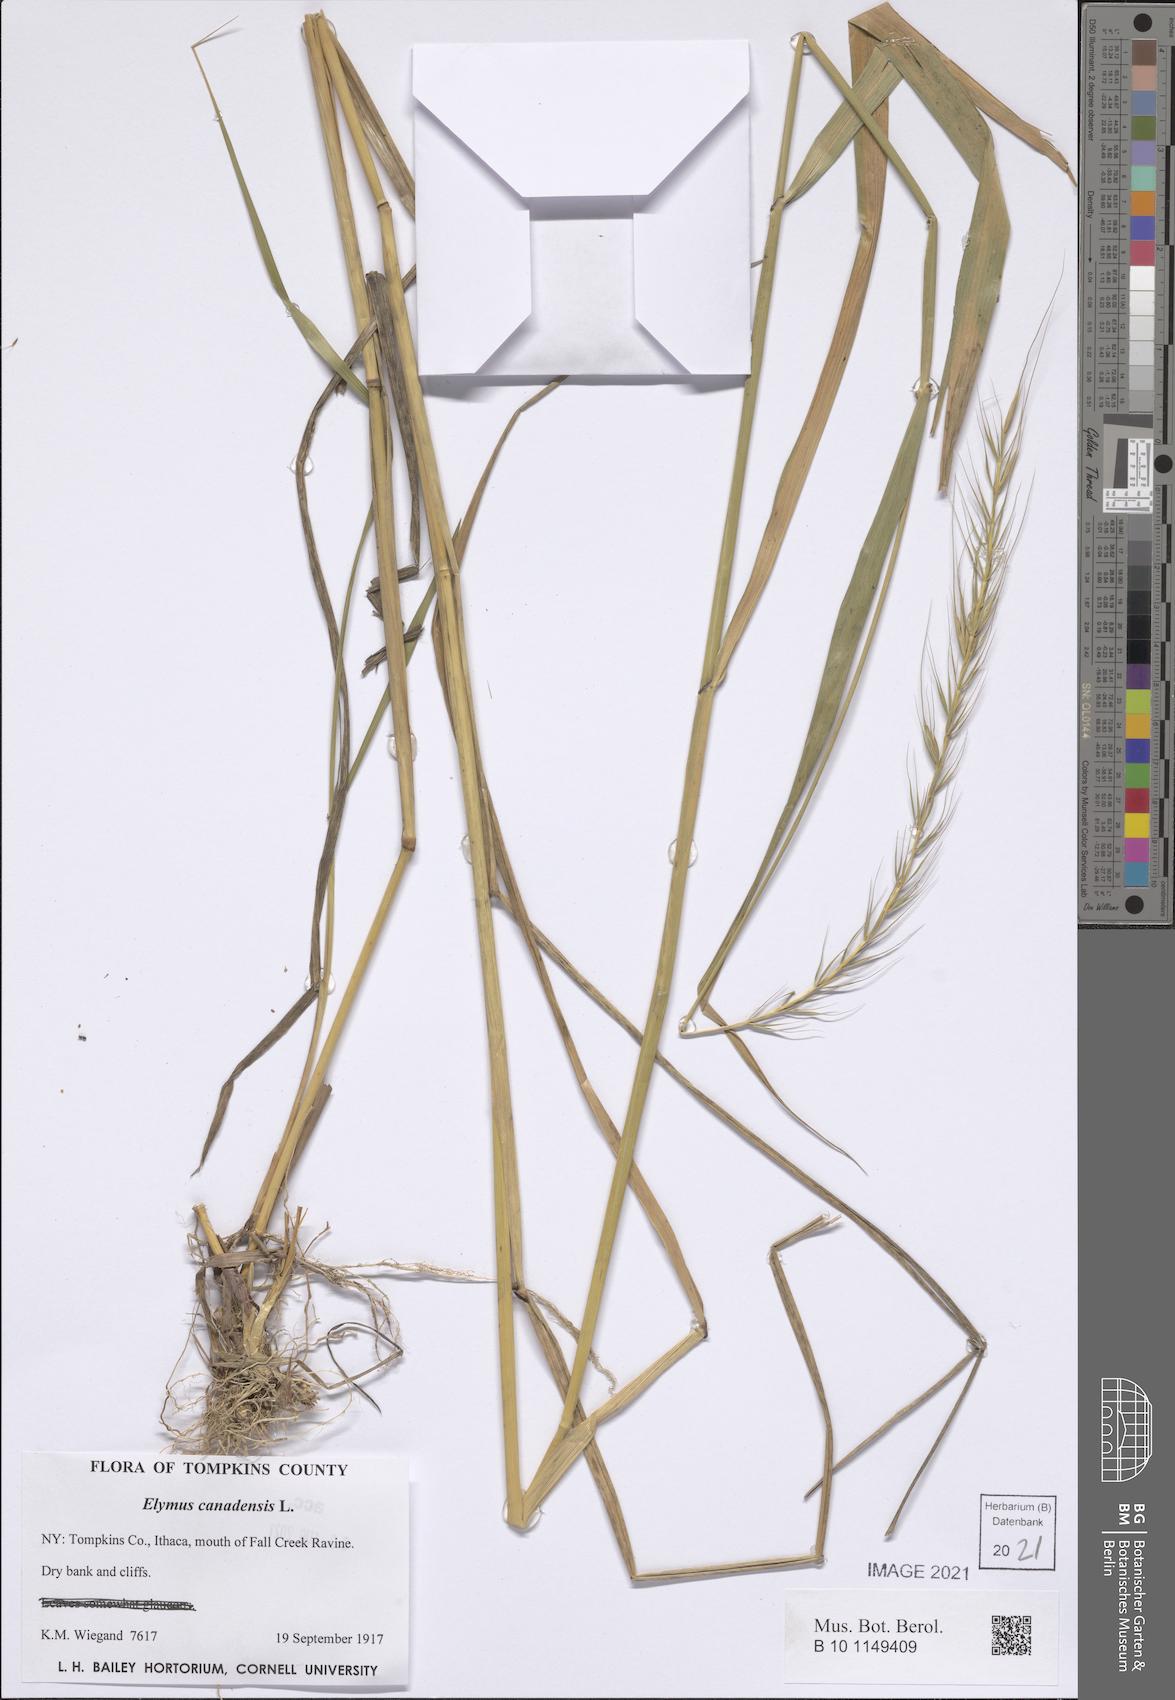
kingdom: Plantae
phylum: Tracheophyta
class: Liliopsida
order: Poales
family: Poaceae
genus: Elymus
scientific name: Elymus canadensis
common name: Canada wild rye
